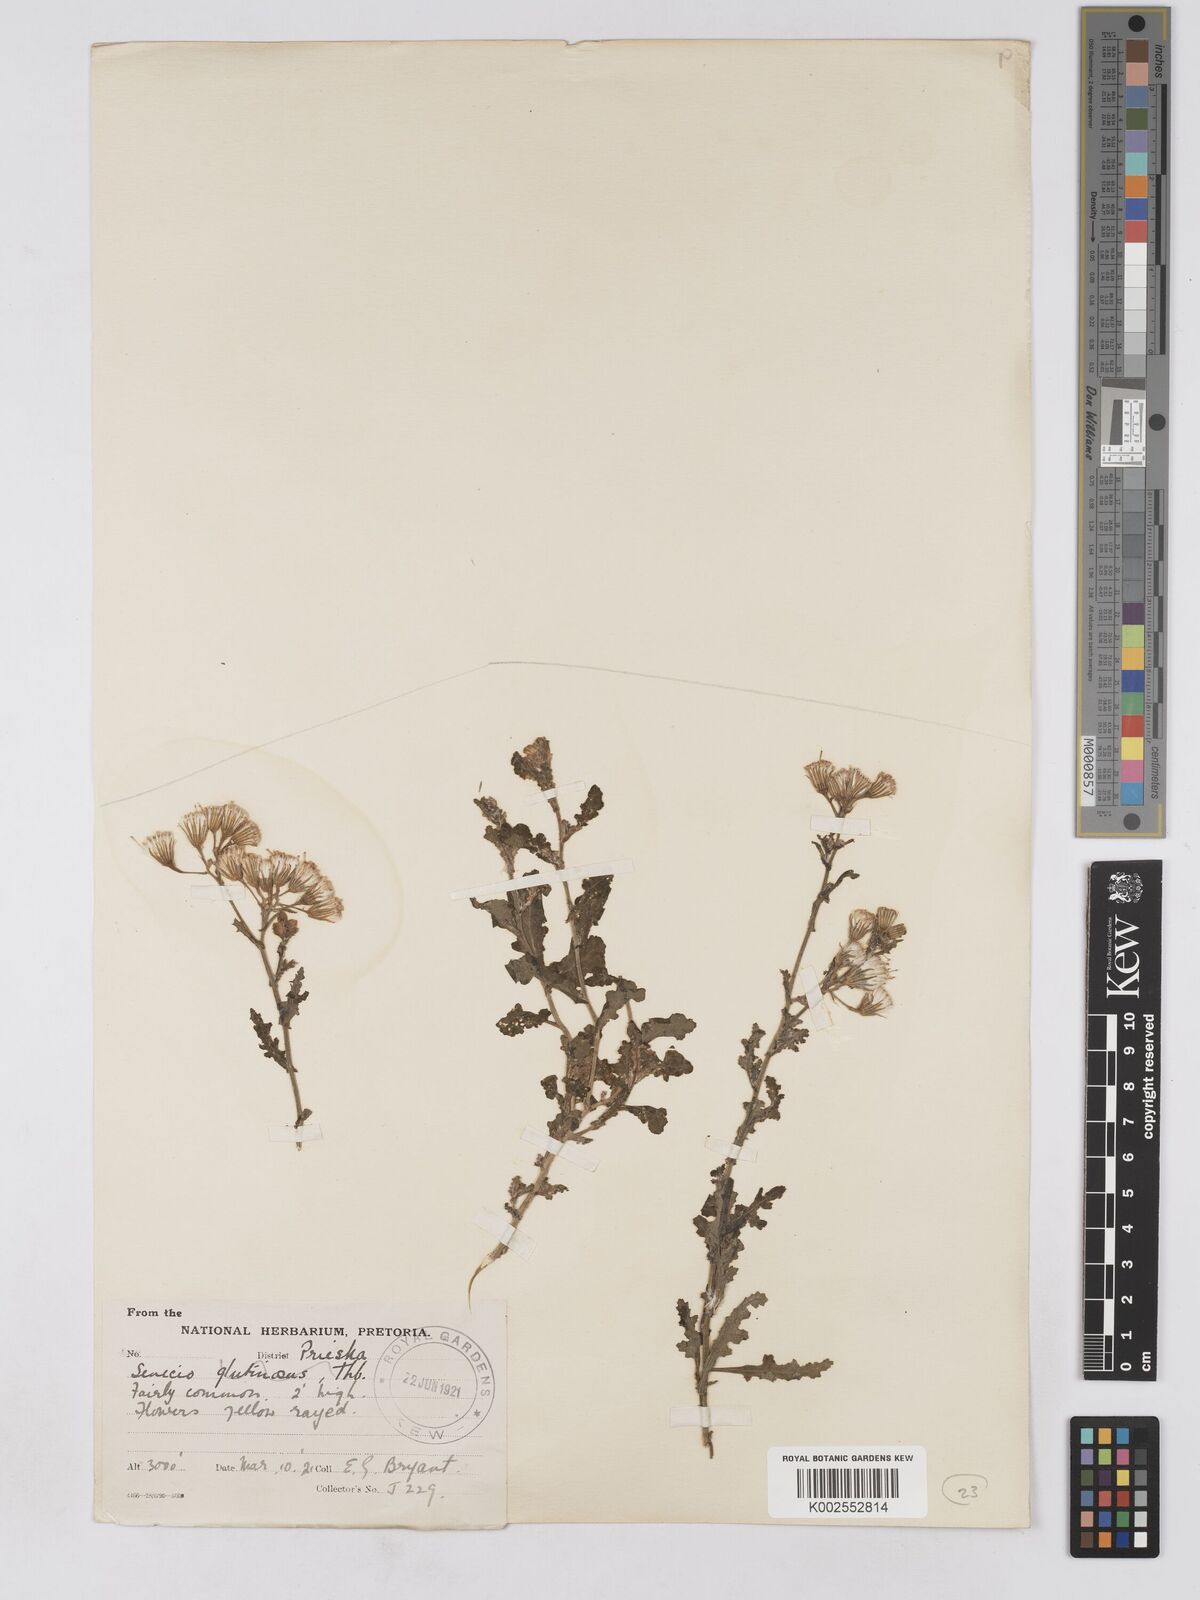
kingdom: Plantae
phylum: Tracheophyta
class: Magnoliopsida
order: Asterales
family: Asteraceae
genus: Senecio
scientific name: Senecio consanguineus
